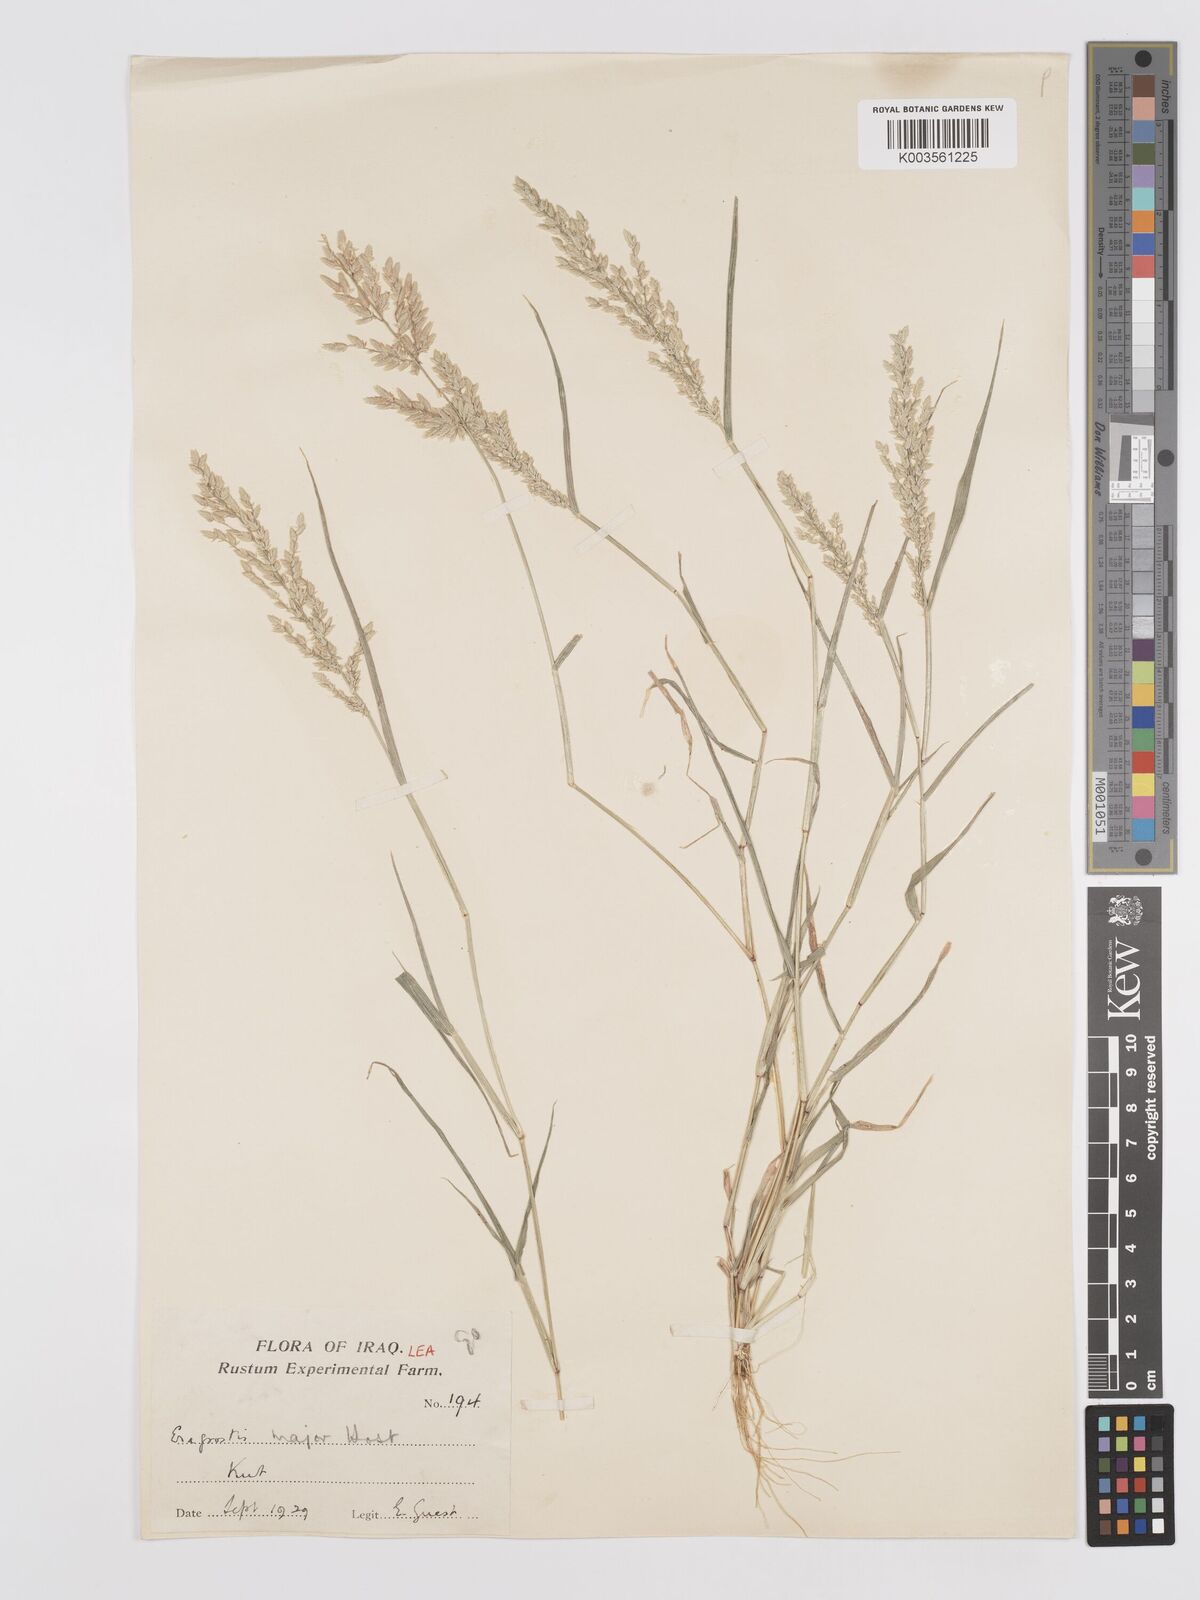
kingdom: Plantae
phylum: Tracheophyta
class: Liliopsida
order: Poales
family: Poaceae
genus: Eragrostis
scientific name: Eragrostis cilianensis
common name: Stinkgrass
